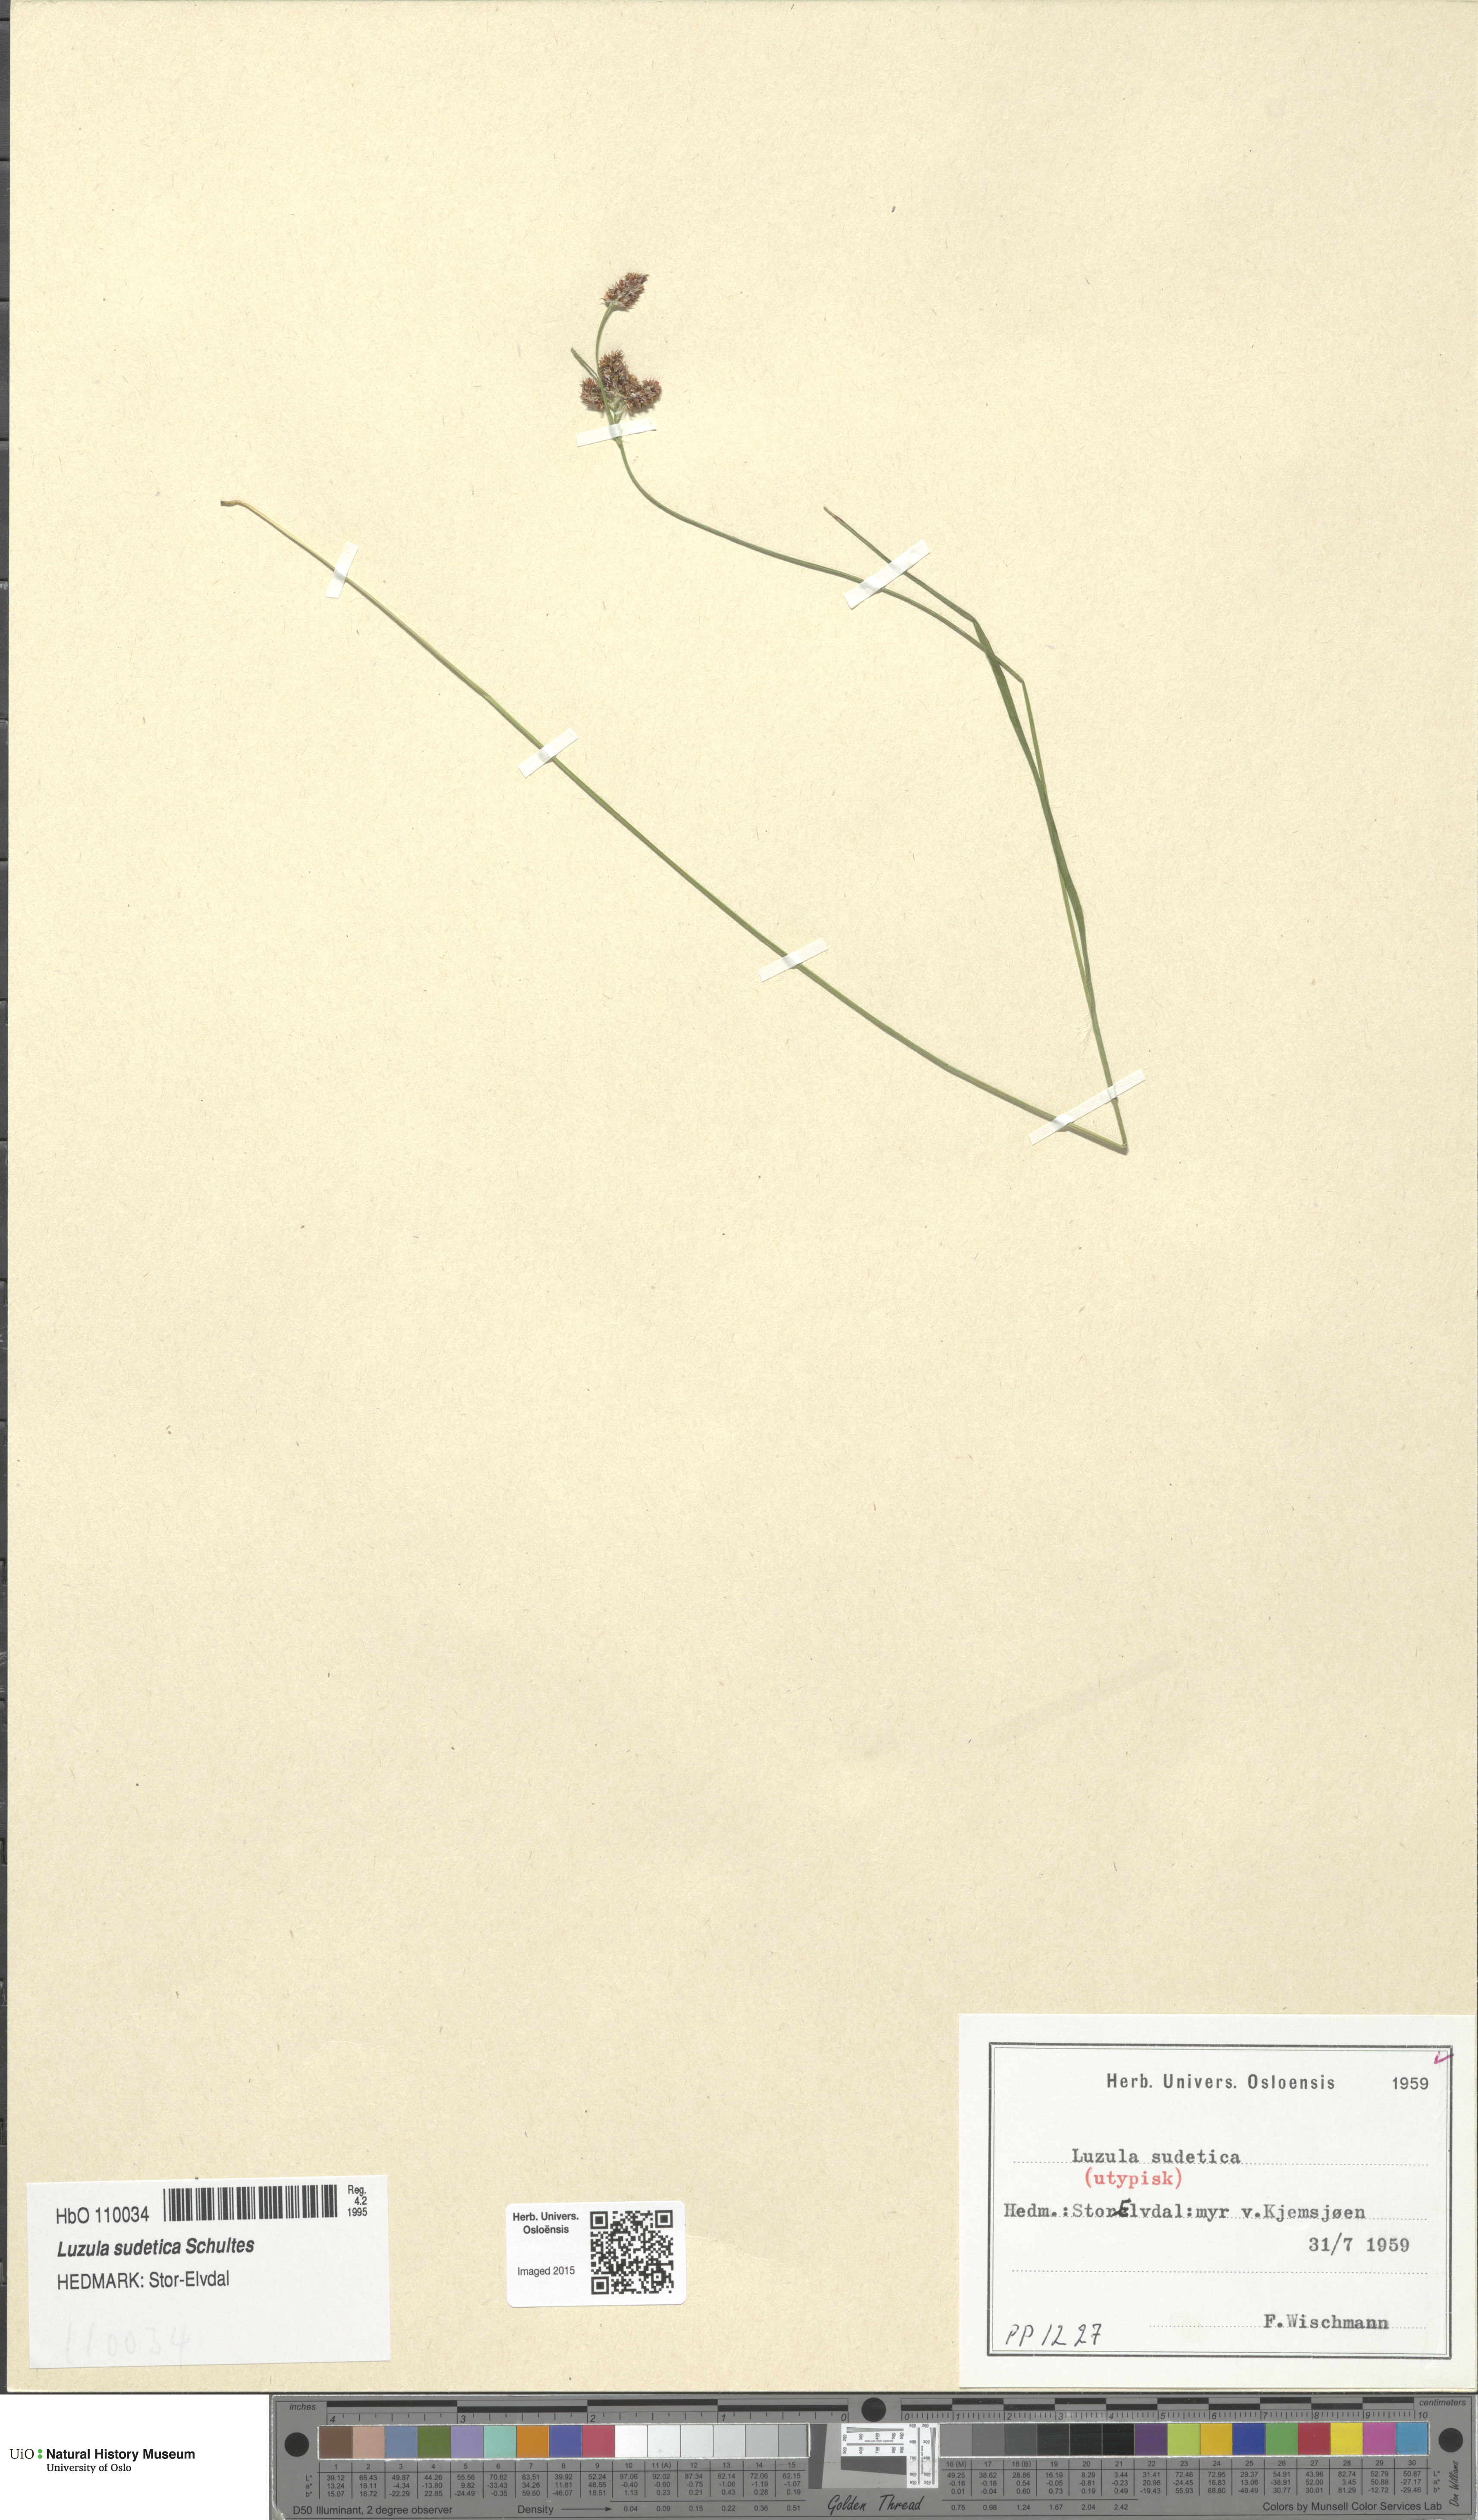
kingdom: Plantae
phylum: Tracheophyta
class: Liliopsida
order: Poales
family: Juncaceae
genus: Luzula
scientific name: Luzula sudetica
